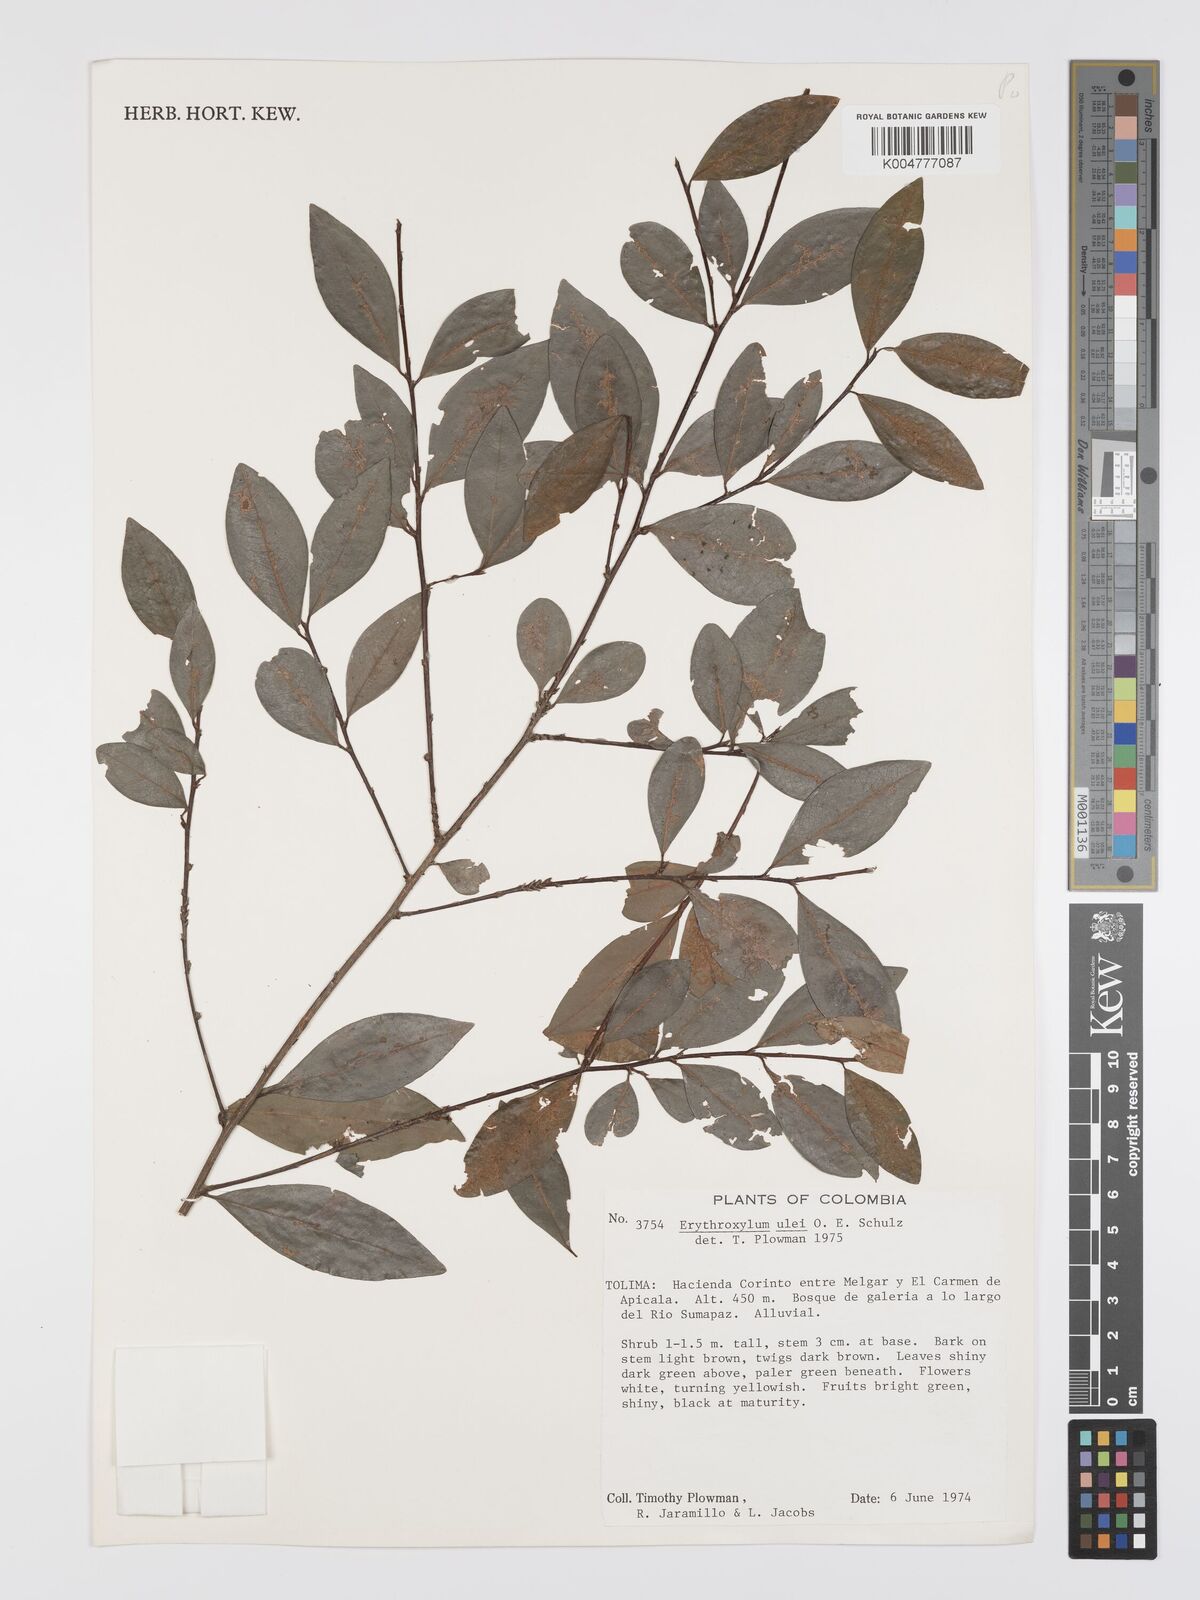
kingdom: Plantae
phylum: Tracheophyta
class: Magnoliopsida
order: Malpighiales
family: Erythroxylaceae
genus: Erythroxylum
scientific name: Erythroxylum ulei
